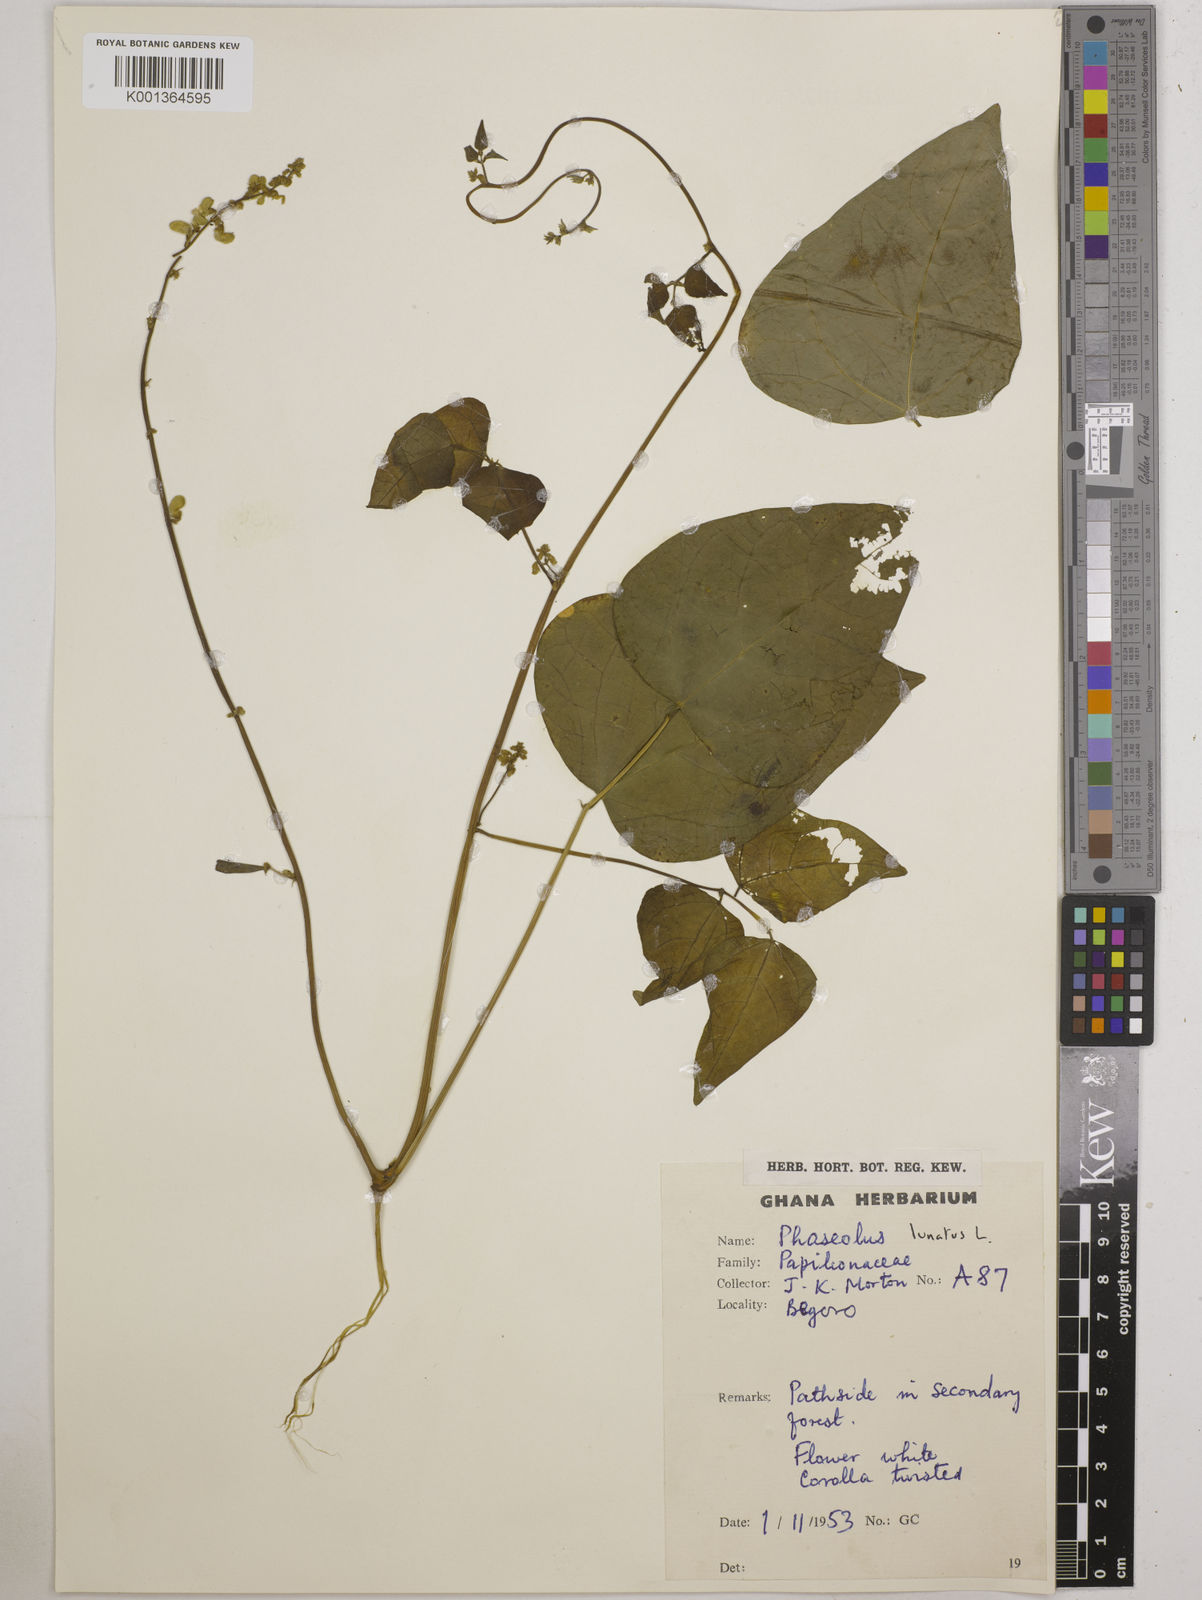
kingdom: Plantae
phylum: Tracheophyta
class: Magnoliopsida
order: Fabales
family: Fabaceae
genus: Phaseolus
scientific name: Phaseolus lunatus
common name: Sieva bean
